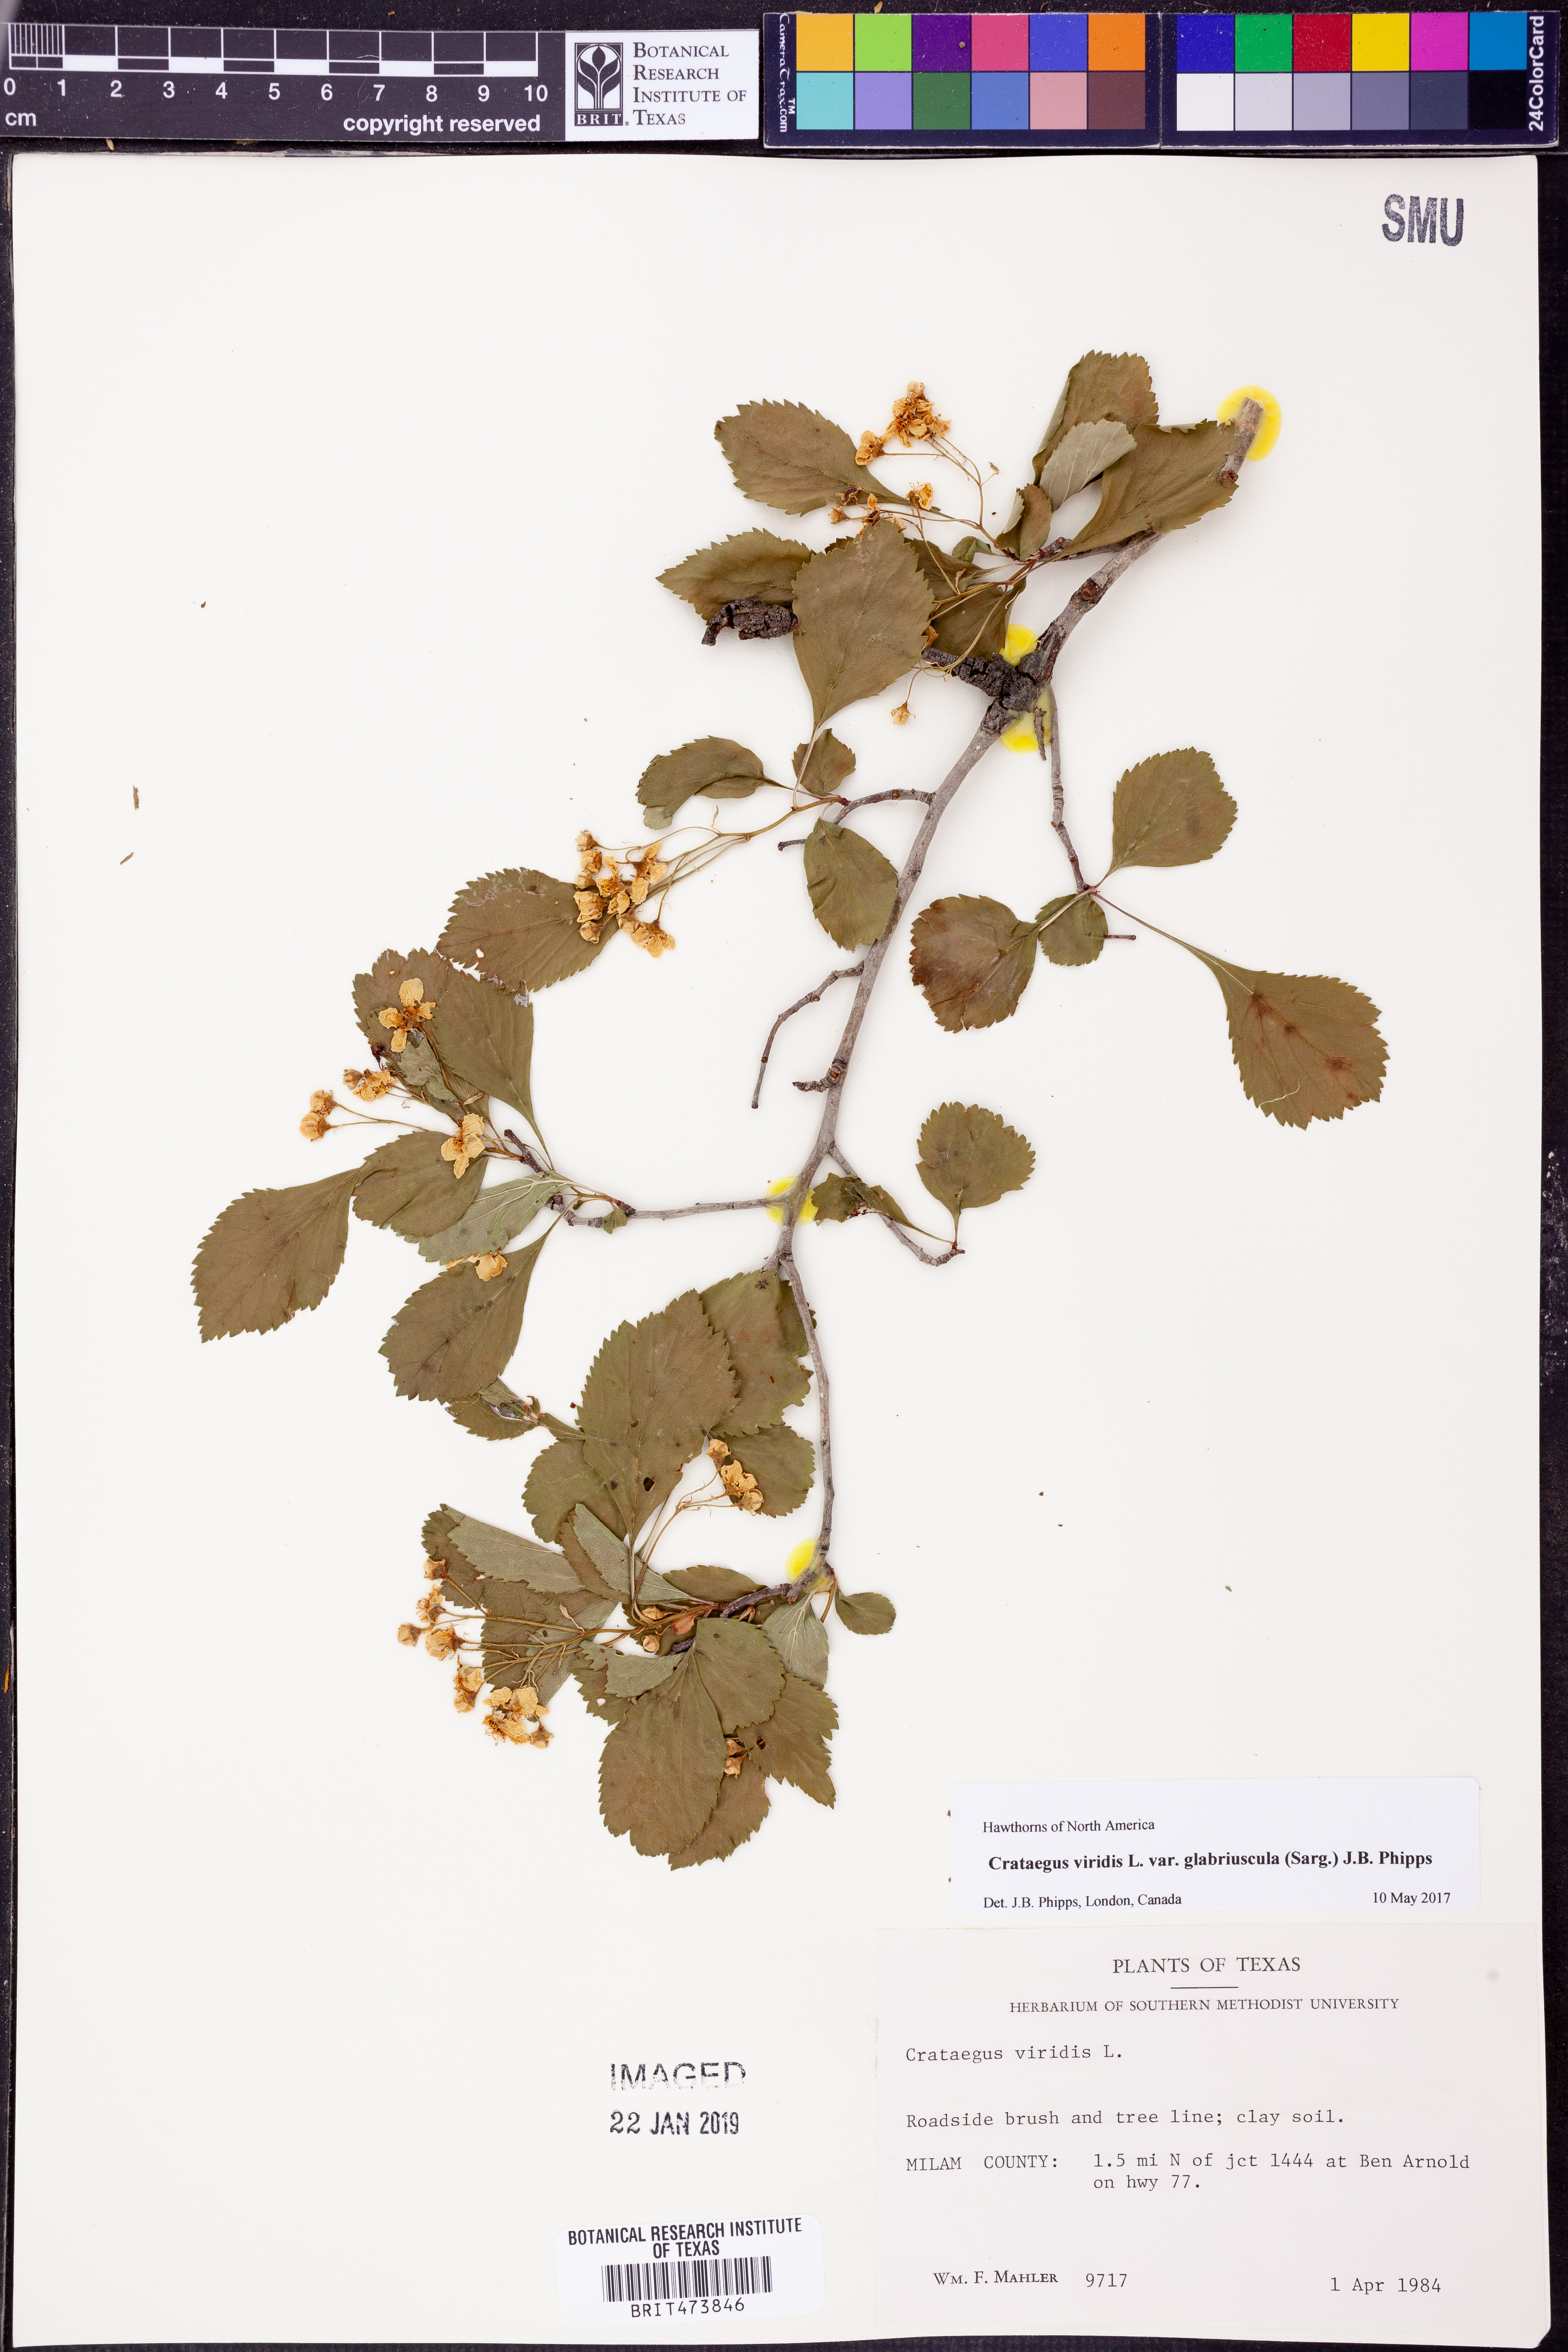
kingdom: Plantae
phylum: Tracheophyta
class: Magnoliopsida
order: Rosales
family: Rosaceae
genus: Crataegus
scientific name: Crataegus viridis
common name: Southernthorn
